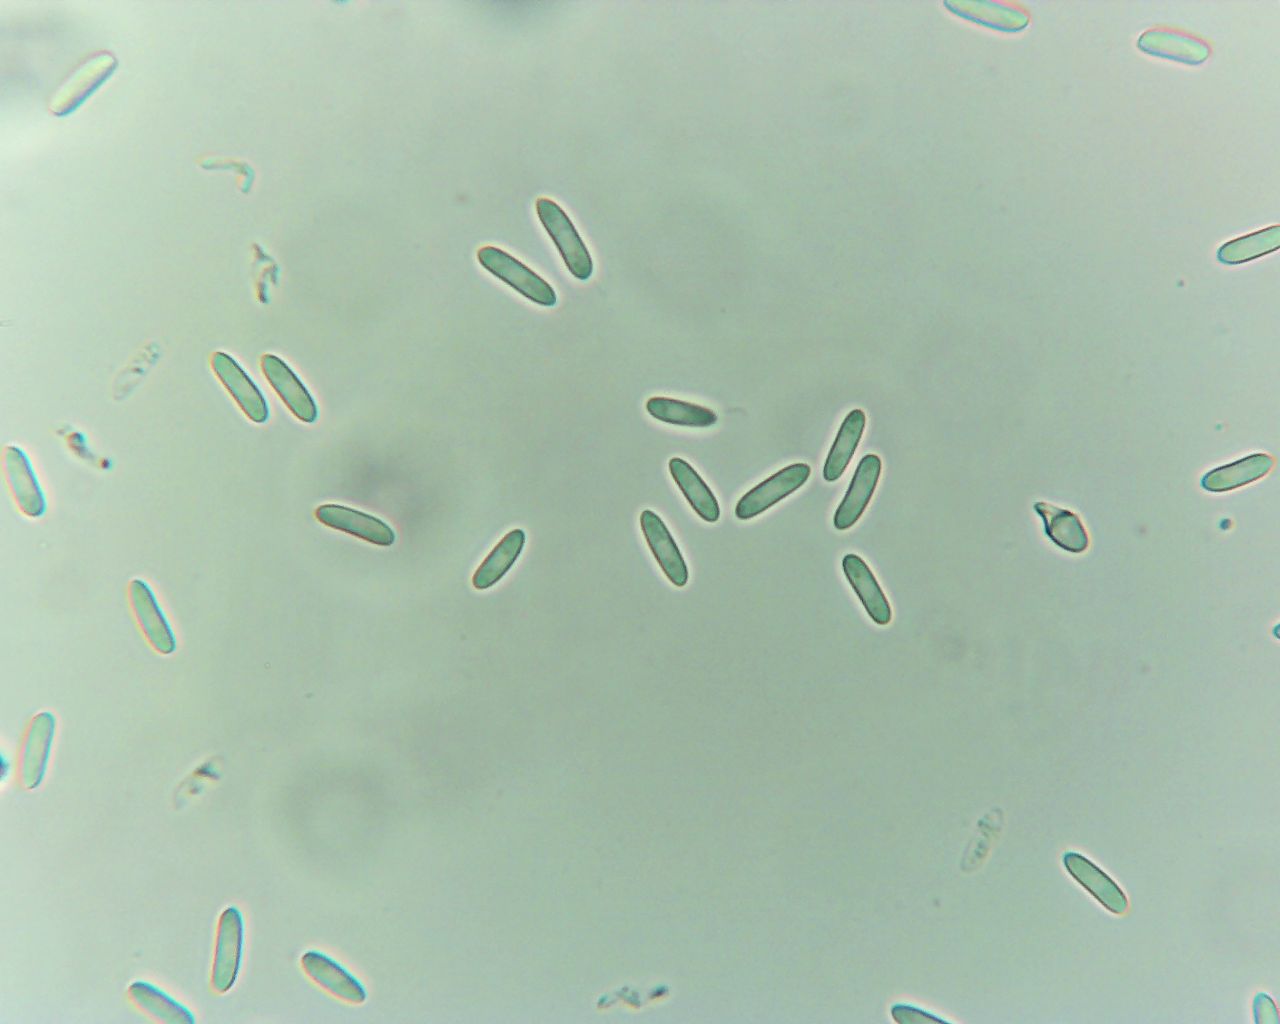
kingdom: Fungi
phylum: Ascomycota
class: Leotiomycetes
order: Helotiales
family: Helotiaceae
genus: Hymenoscyphus
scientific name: Hymenoscyphus calyculus
